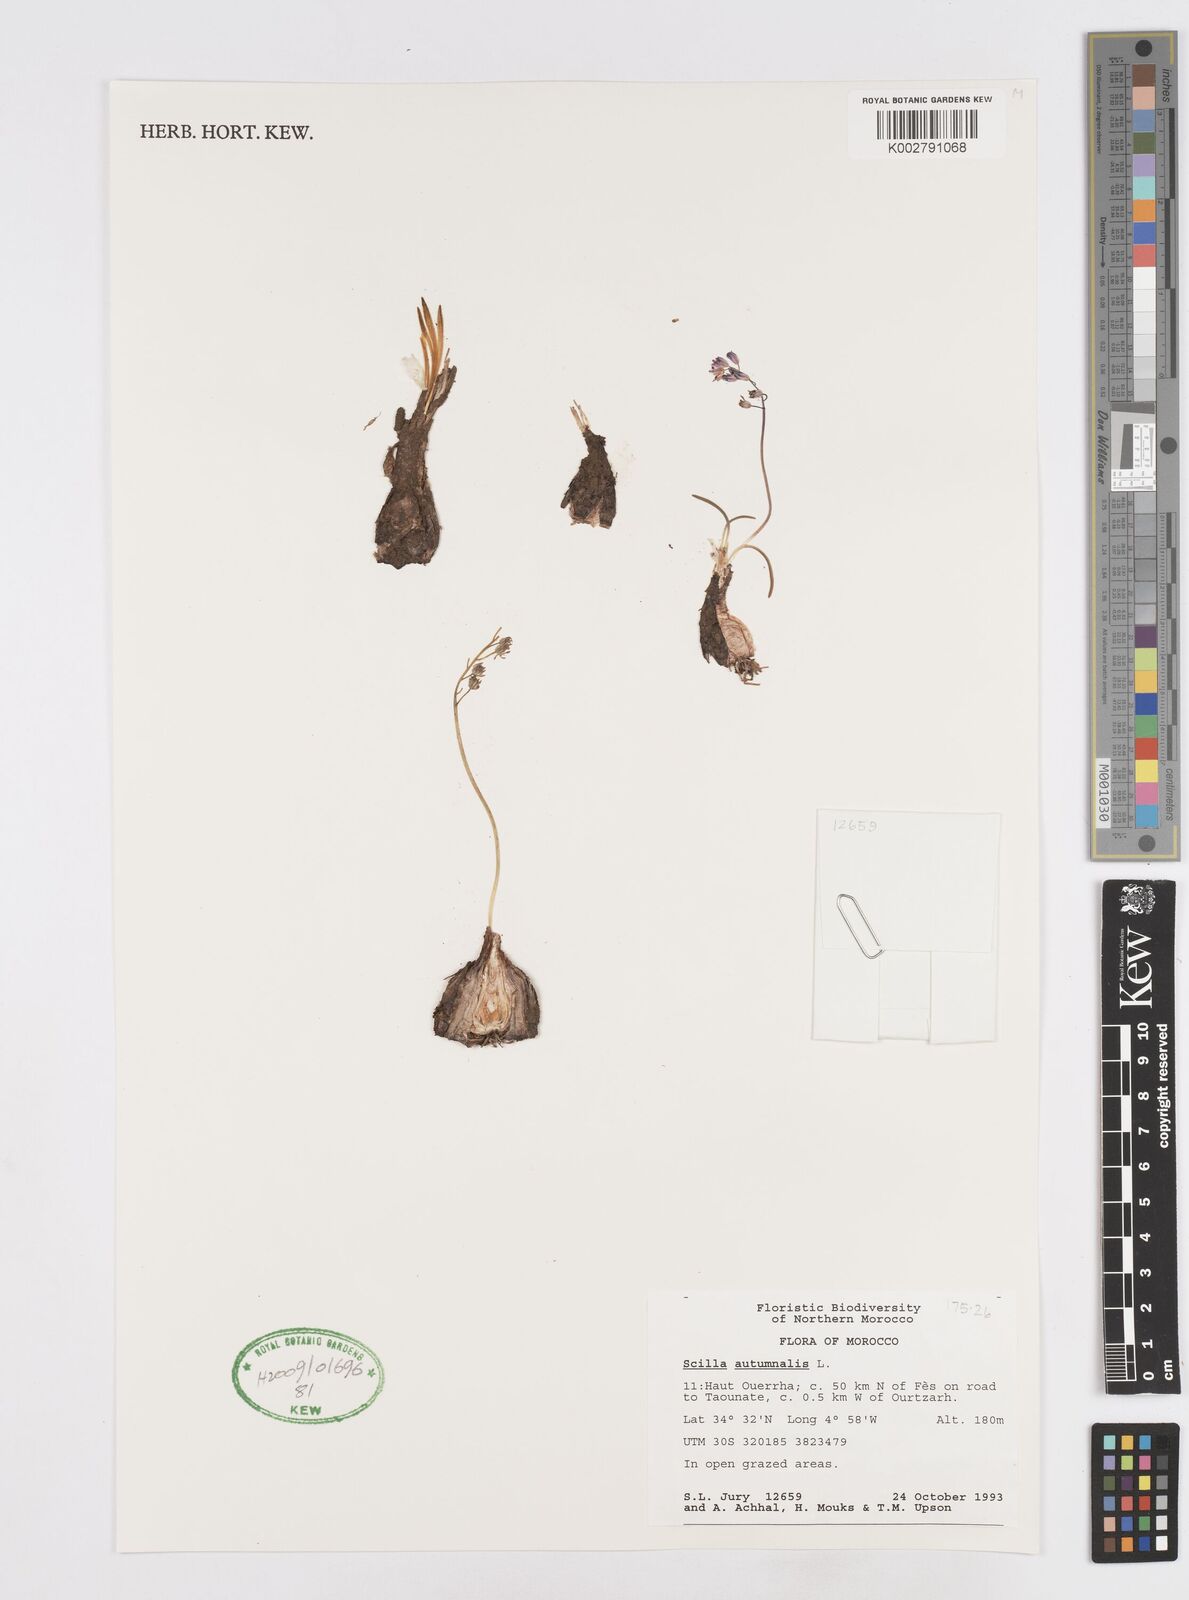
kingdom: Plantae
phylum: Tracheophyta
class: Liliopsida
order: Asparagales
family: Asparagaceae
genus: Prospero
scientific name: Prospero autumnale
